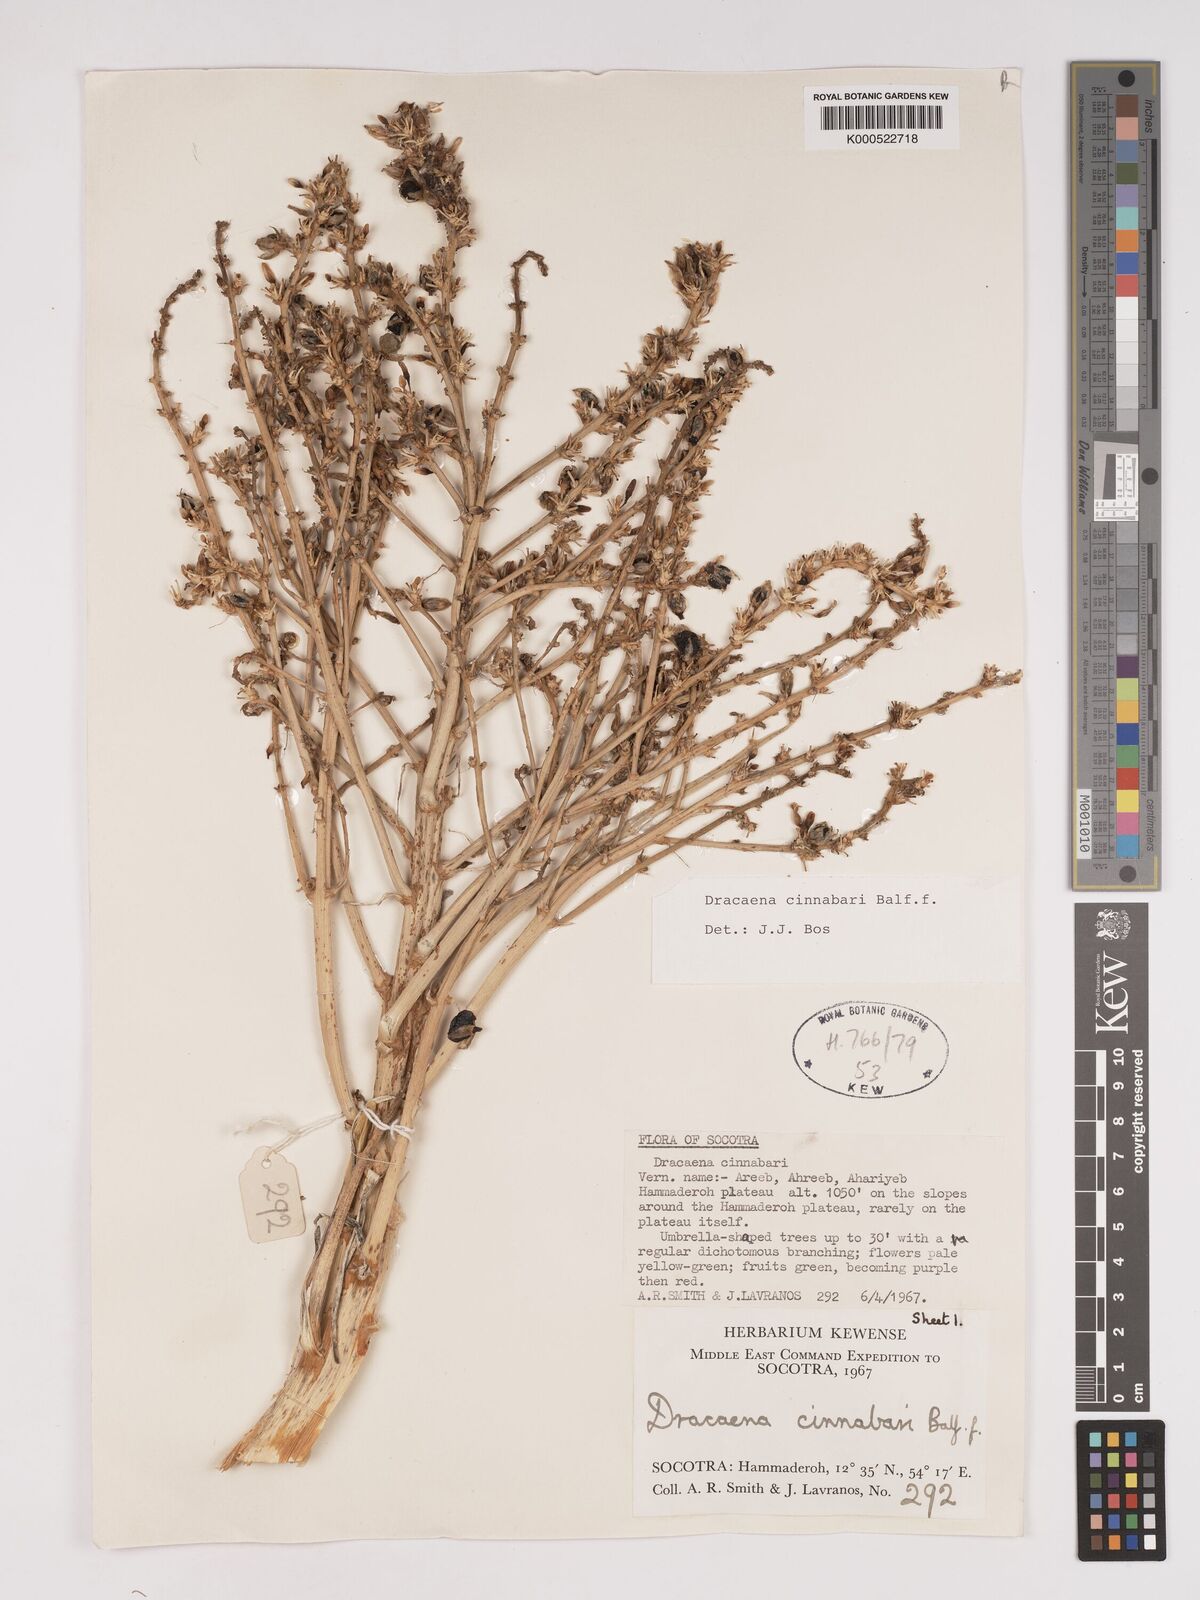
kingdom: Plantae
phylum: Tracheophyta
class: Liliopsida
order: Asparagales
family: Asparagaceae
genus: Dracaena
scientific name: Dracaena cinnabari
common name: Dragon's blood tree
